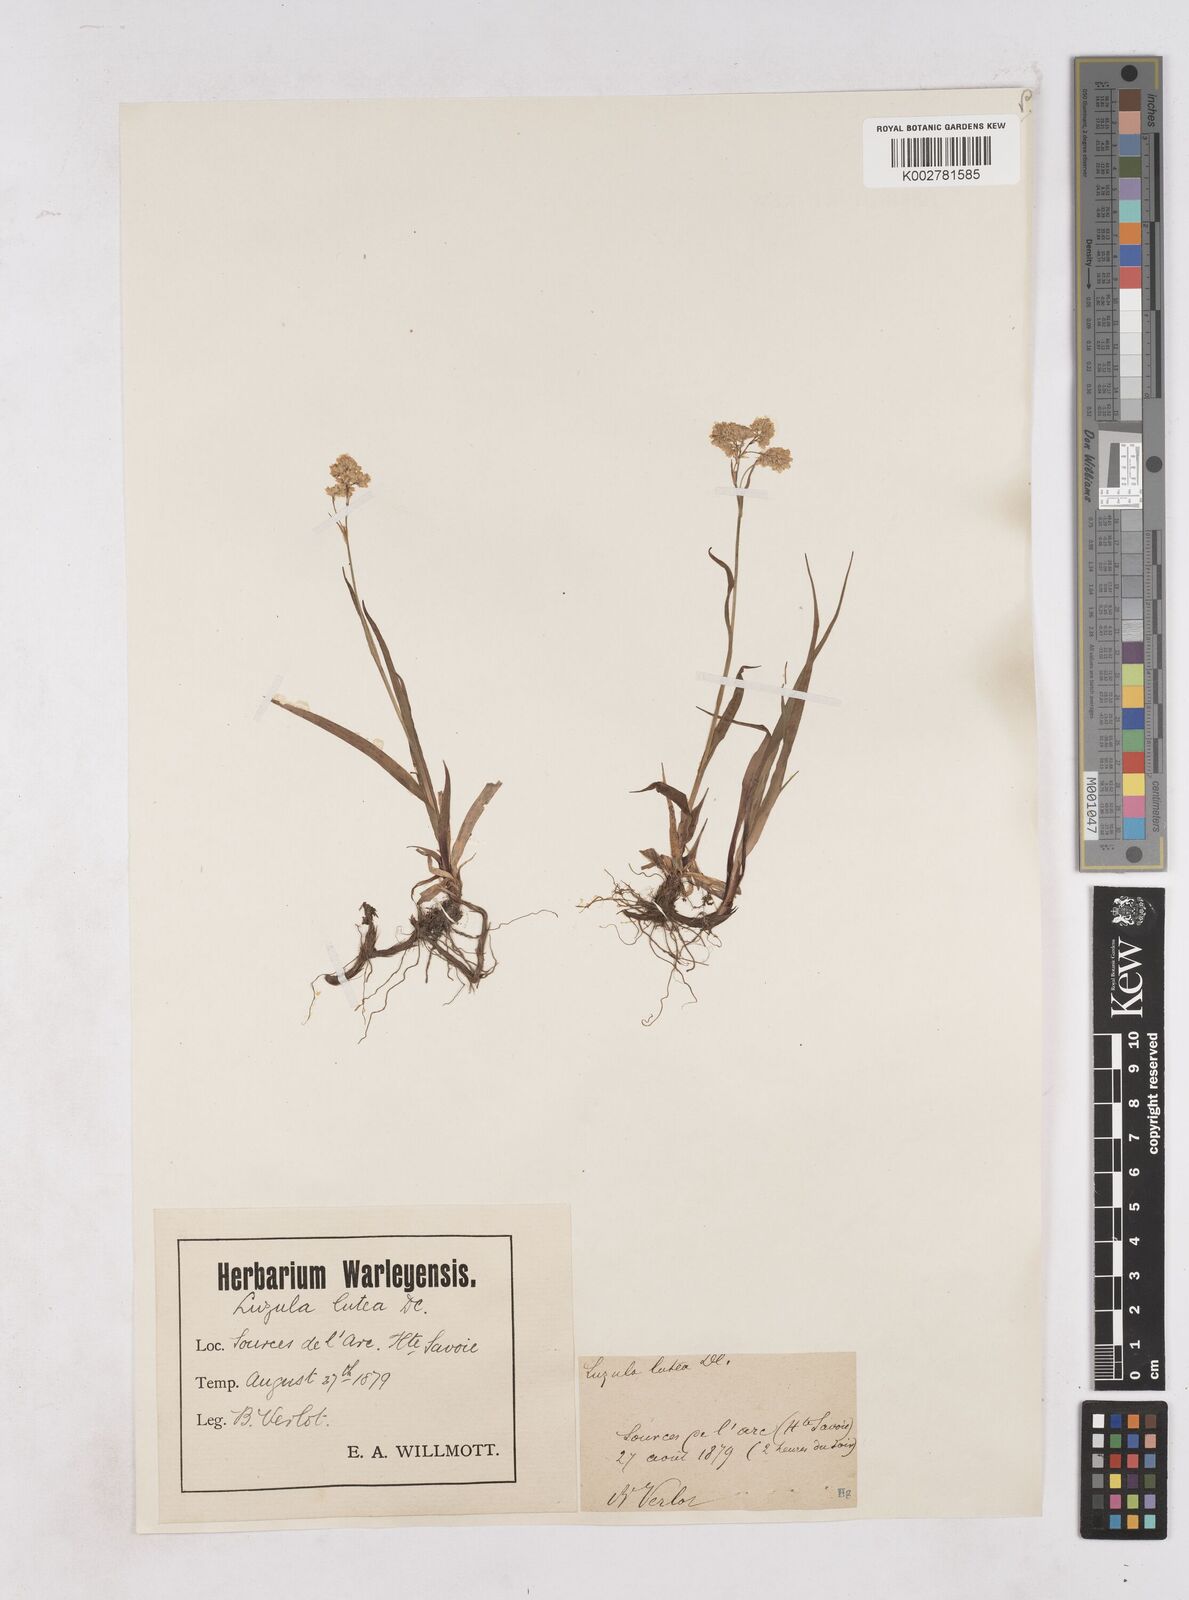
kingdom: Plantae
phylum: Tracheophyta
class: Liliopsida
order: Poales
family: Juncaceae
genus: Luzula
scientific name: Luzula lutea
